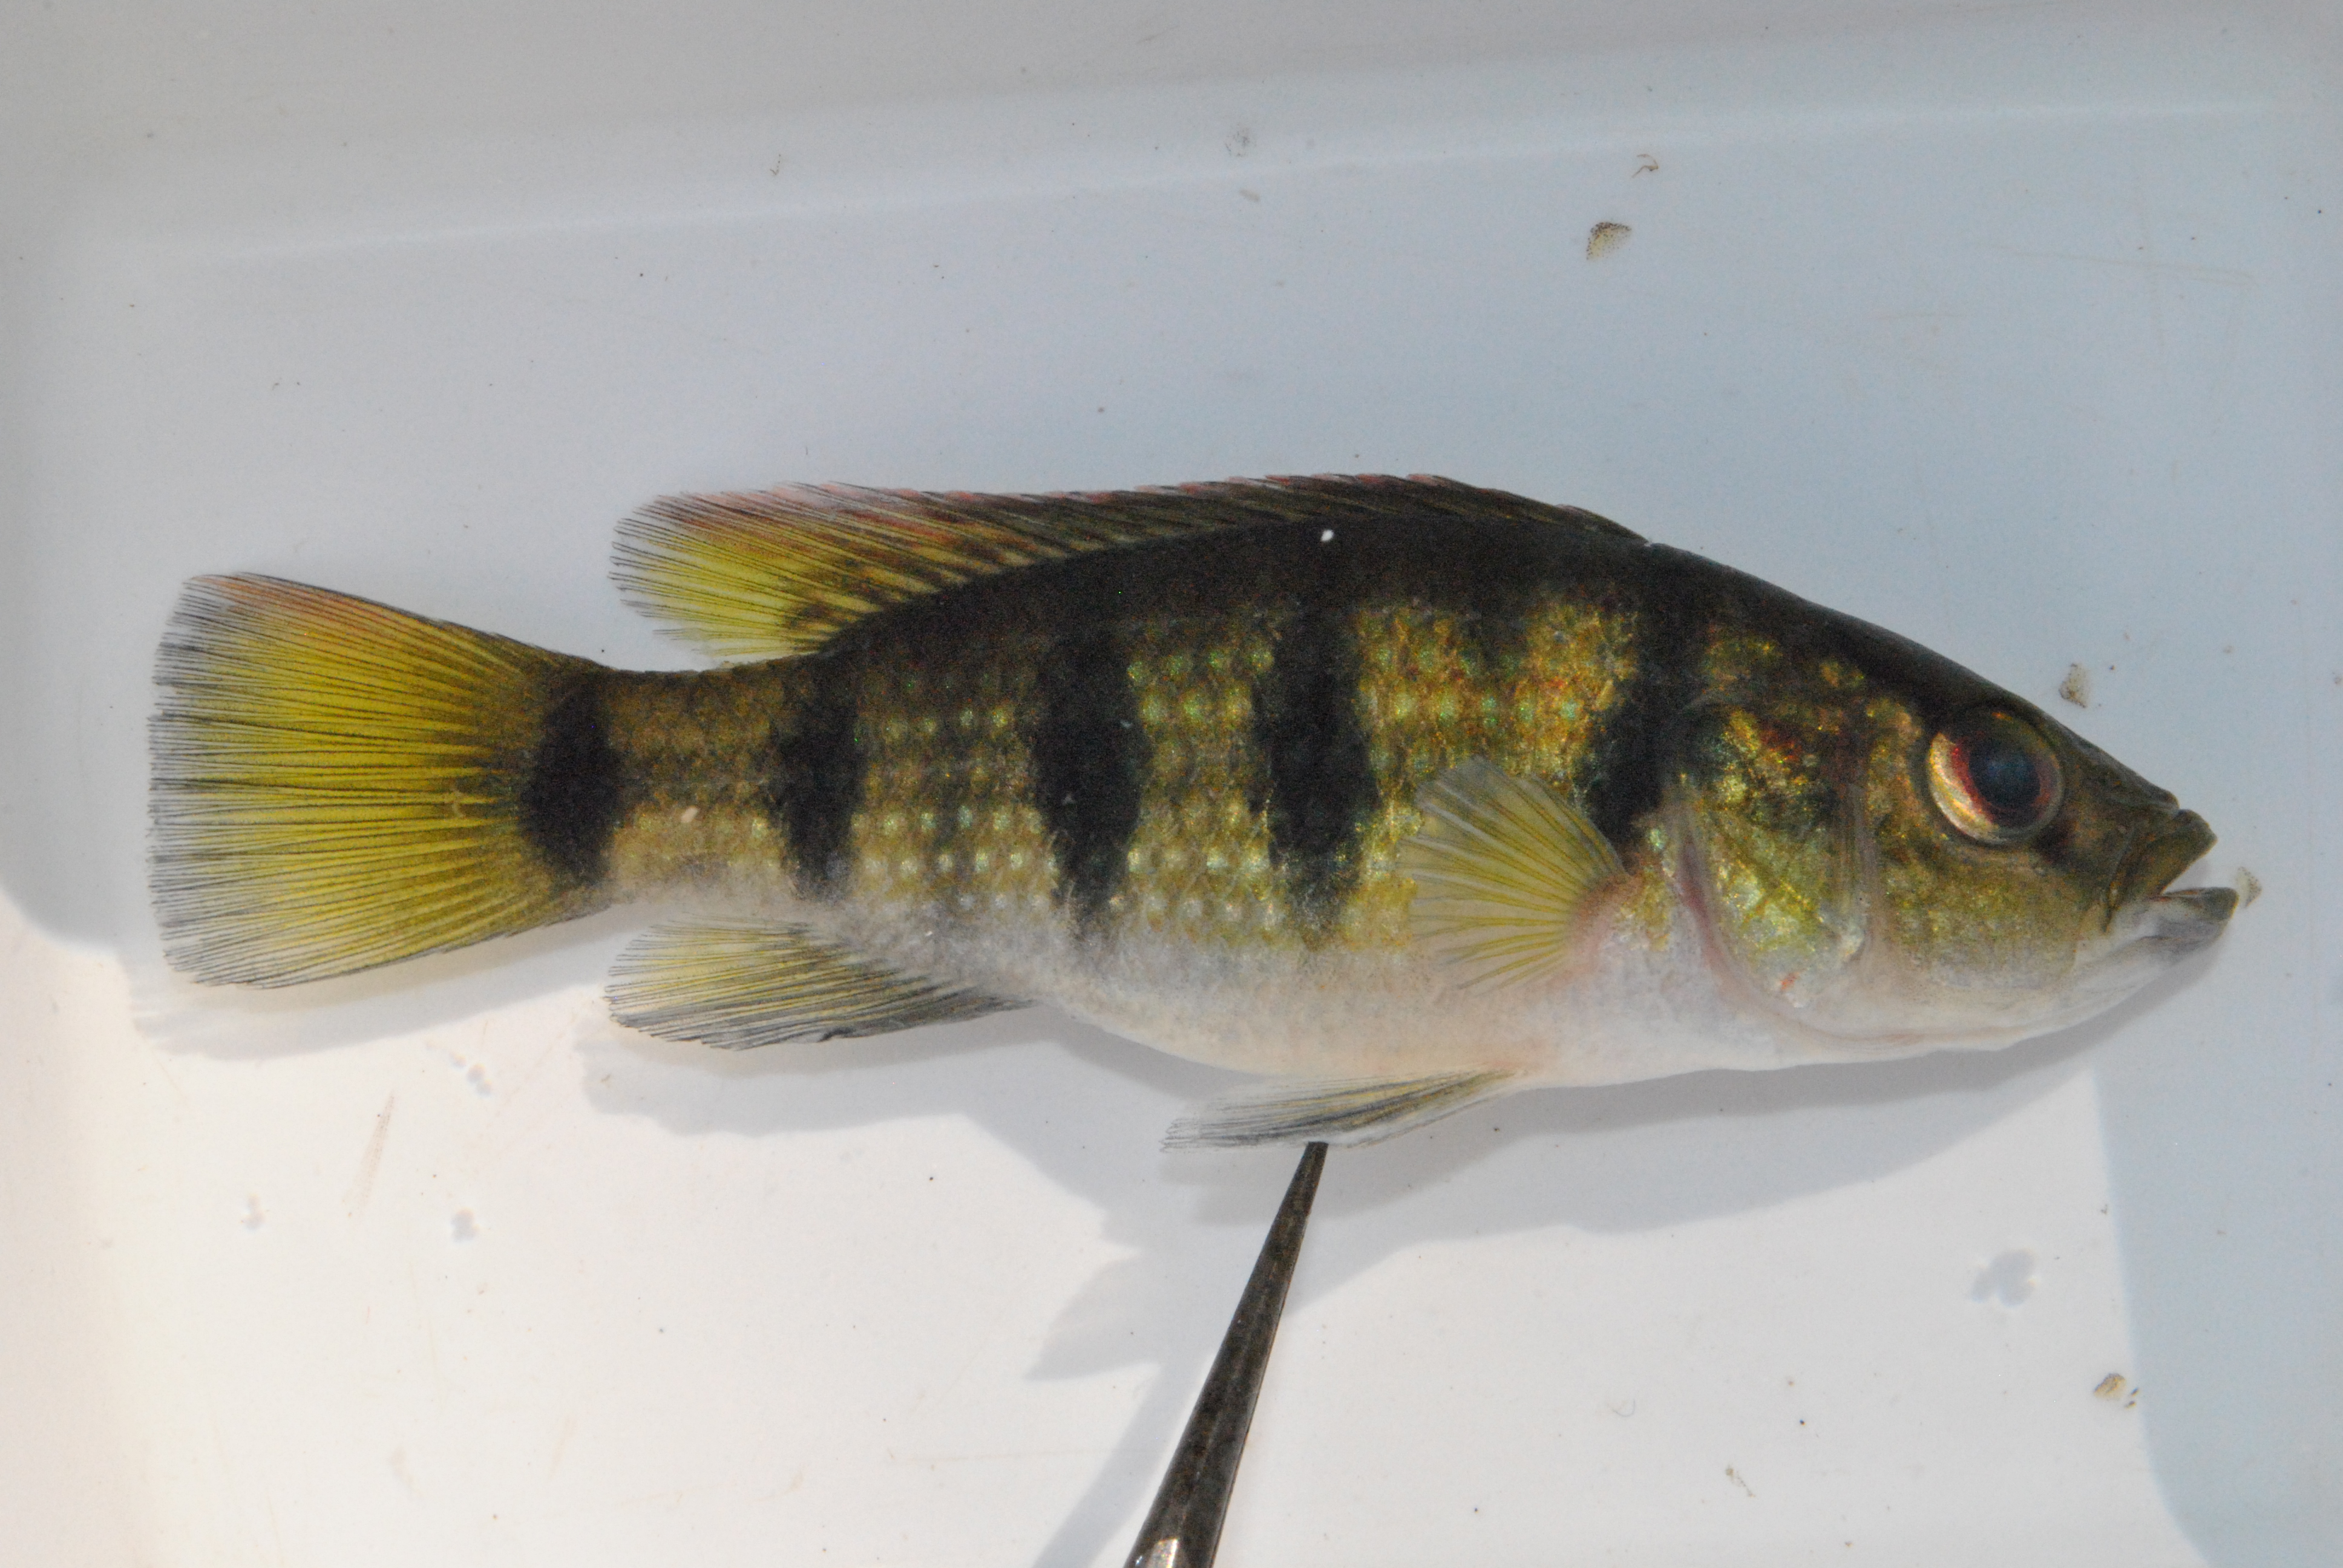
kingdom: Animalia
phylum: Chordata
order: Perciformes
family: Cichlidae
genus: Hemichromis
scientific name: Hemichromis elongatus
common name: Jewel cichlid
